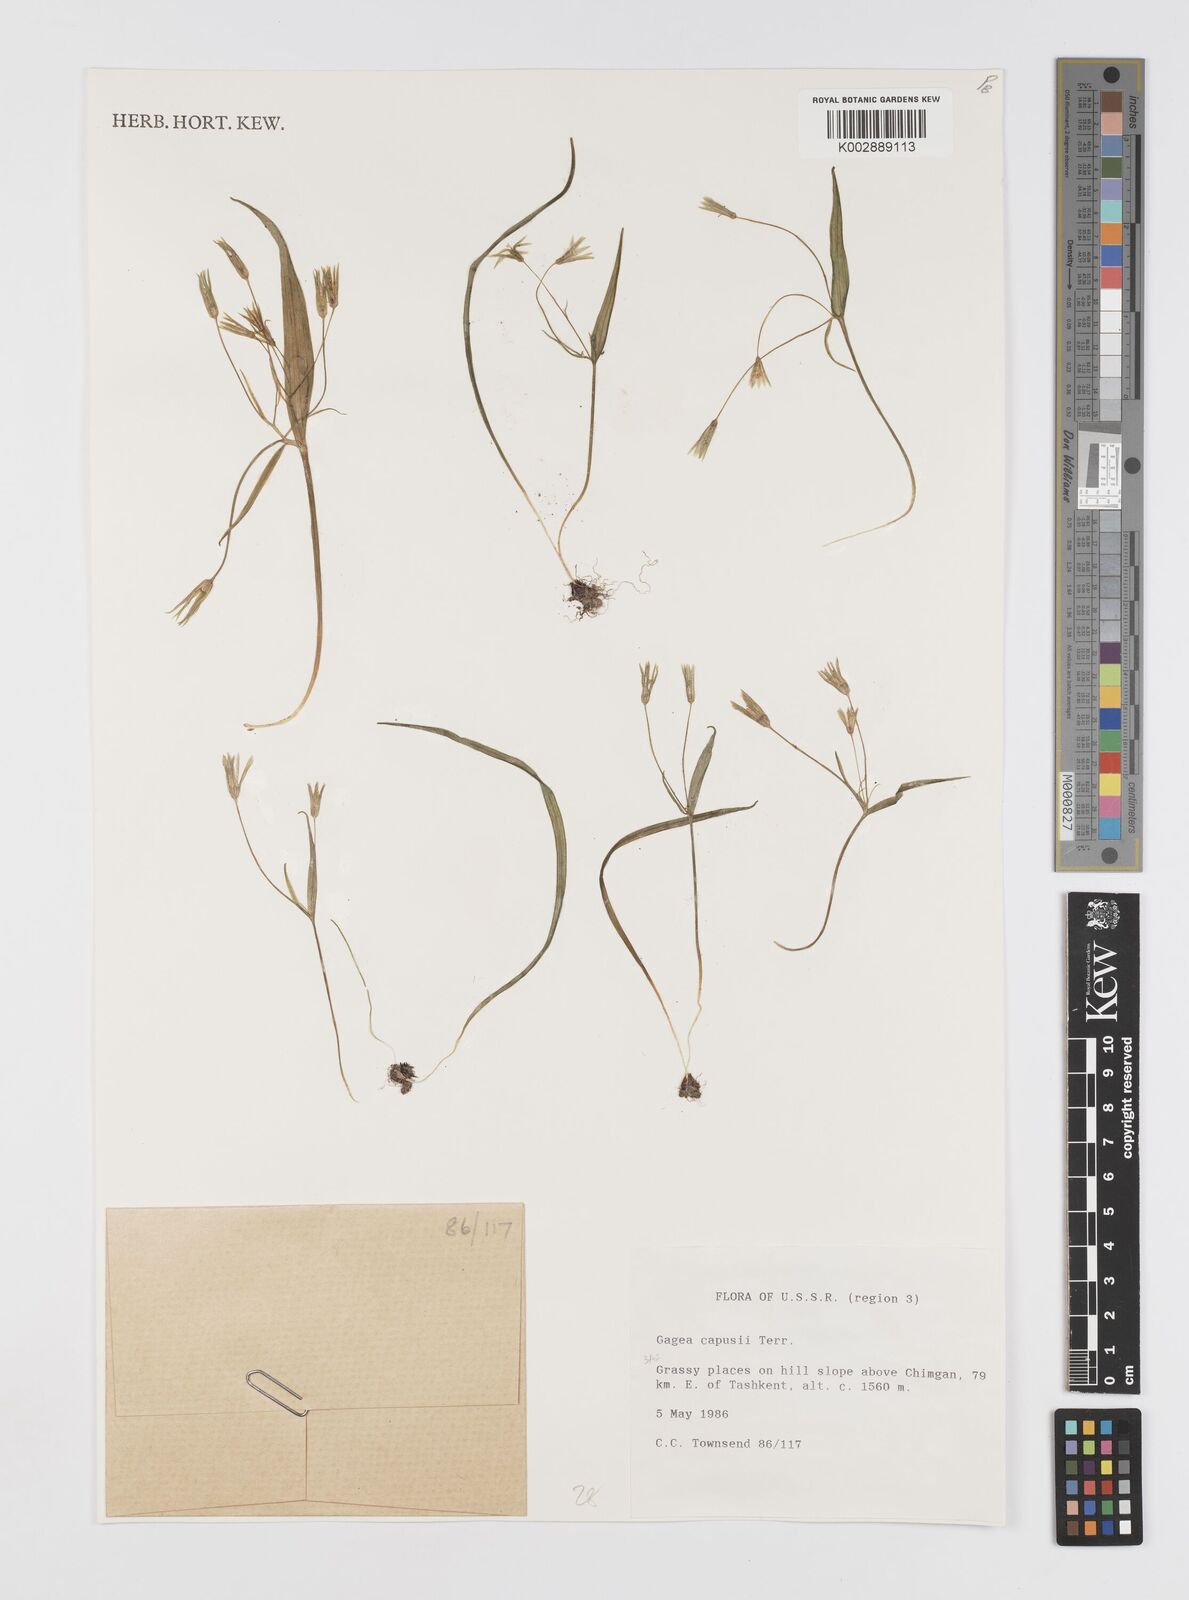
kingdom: Plantae
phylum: Tracheophyta
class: Liliopsida
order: Liliales
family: Liliaceae
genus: Gagea
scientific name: Gagea capusii
